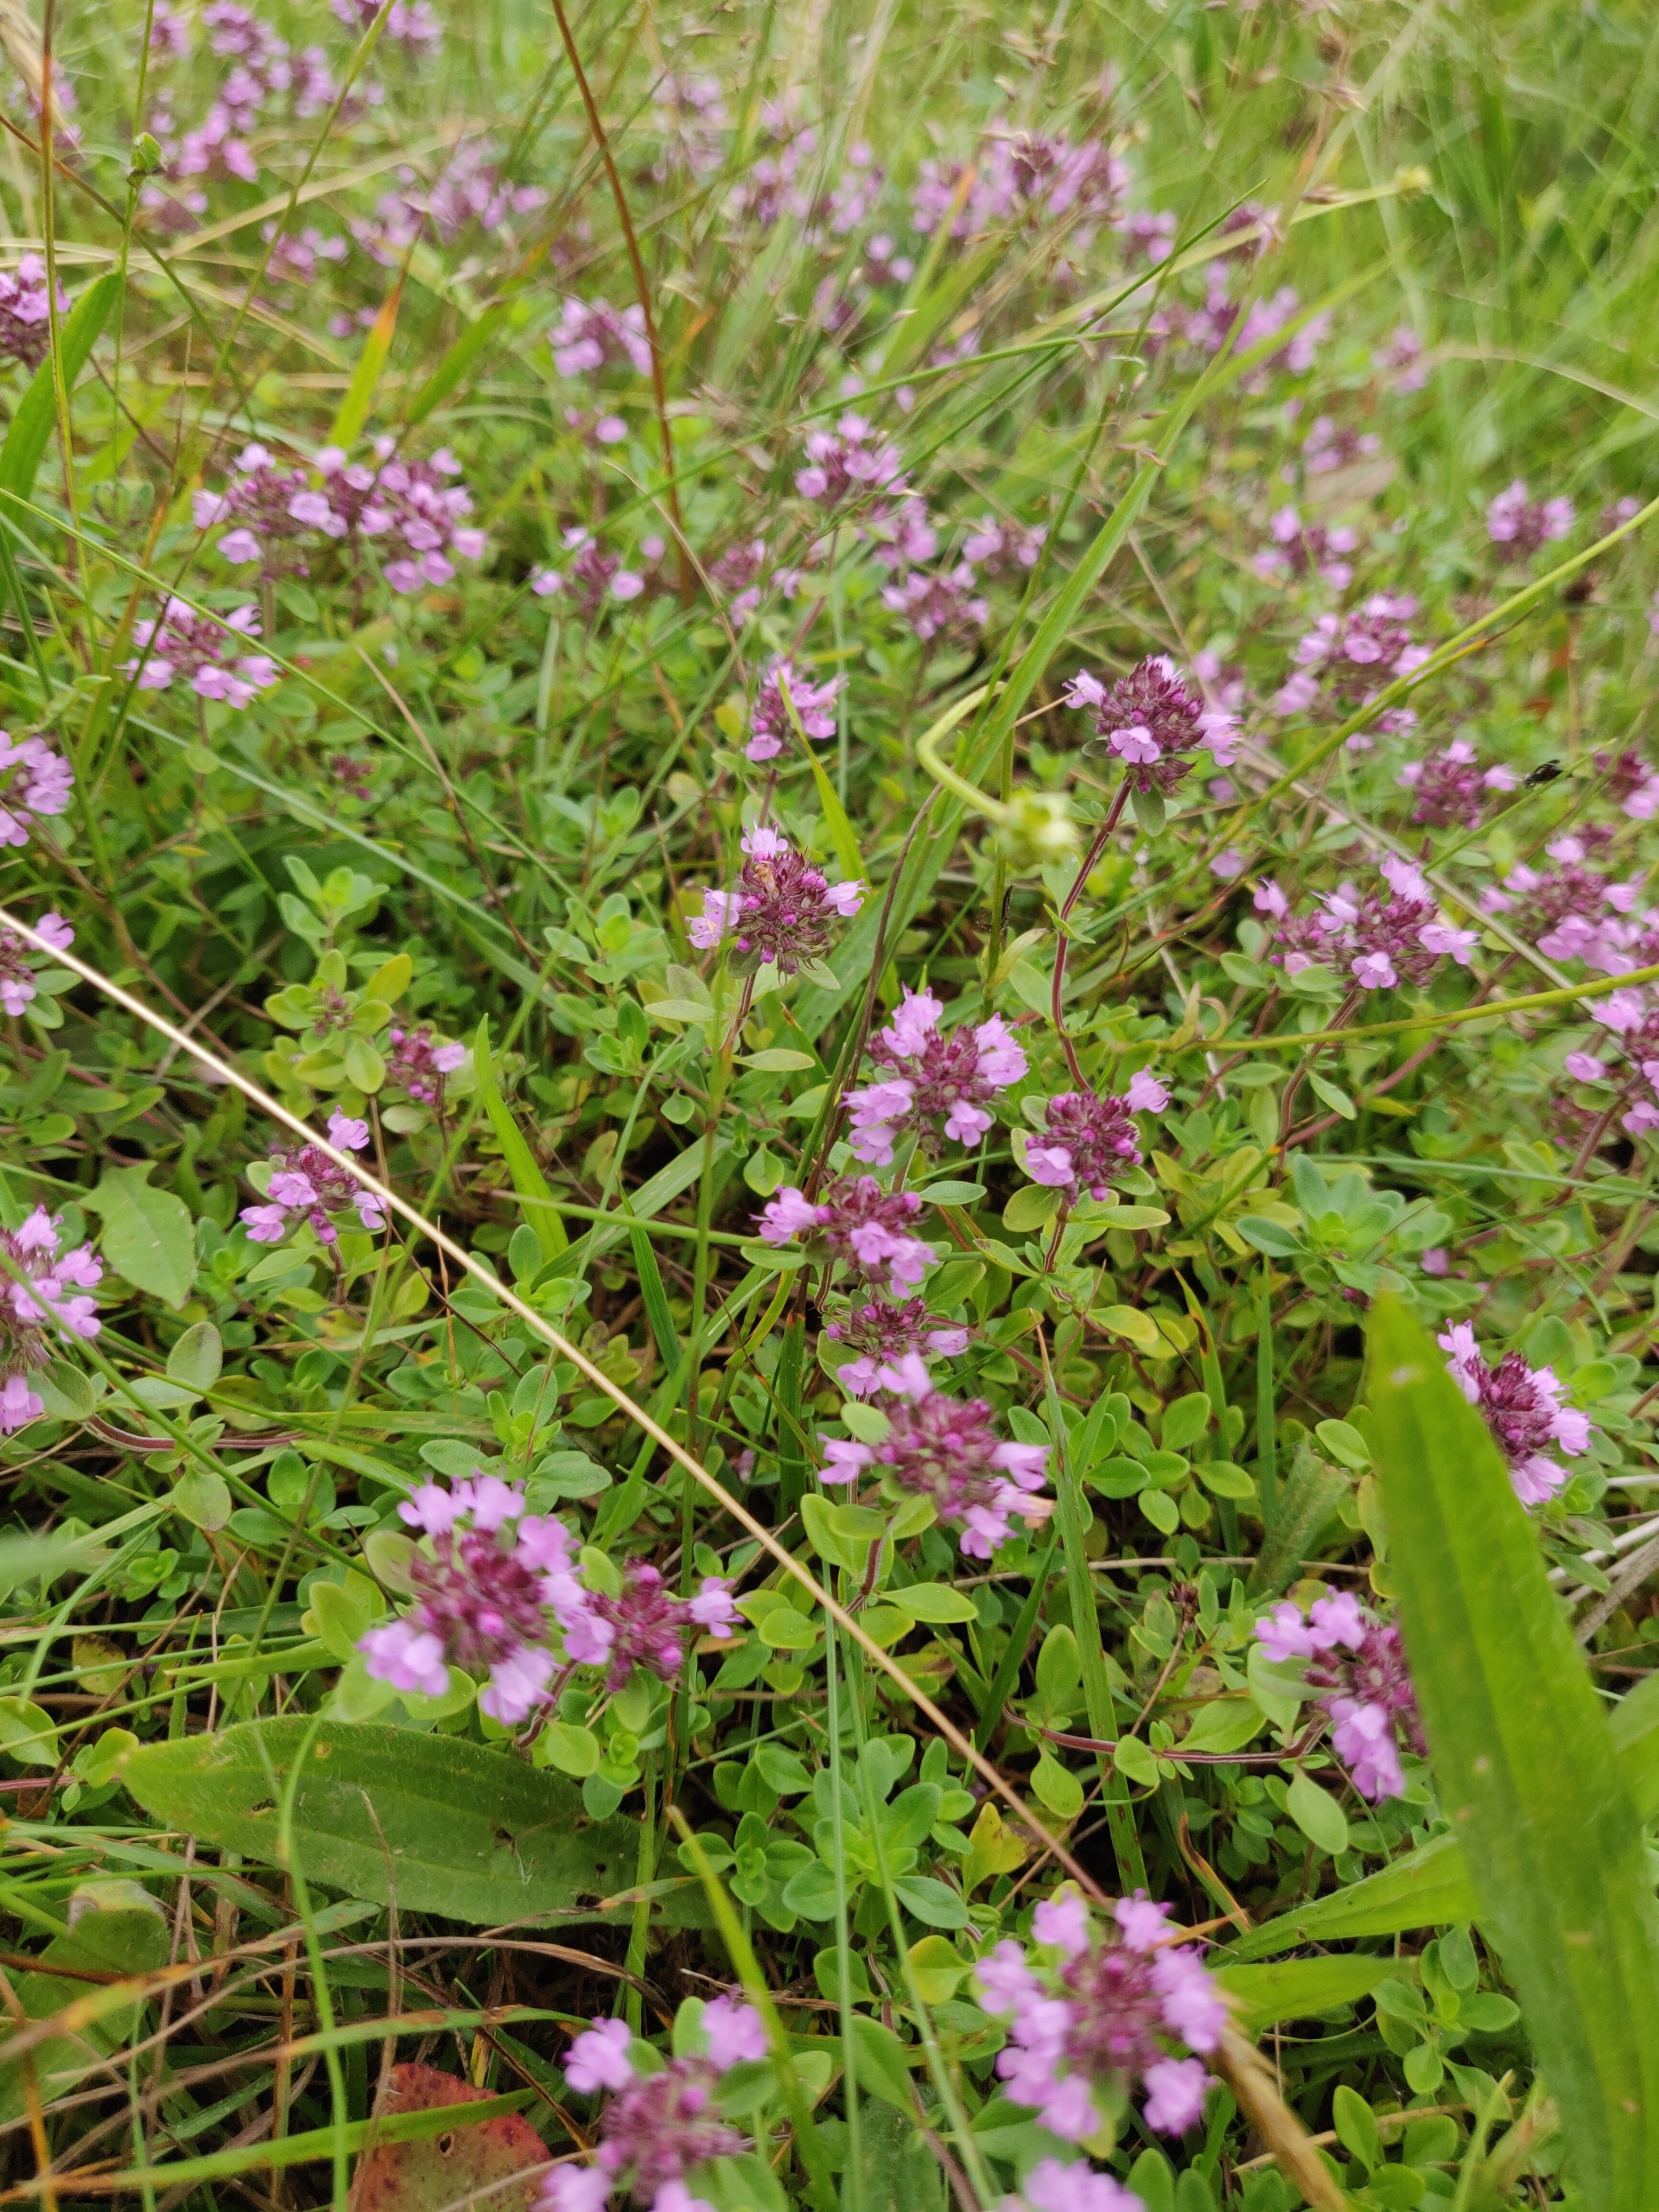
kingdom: Plantae
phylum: Tracheophyta
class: Magnoliopsida
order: Lamiales
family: Lamiaceae
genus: Thymus
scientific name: Thymus pulegioides
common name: Bredbladet timian
